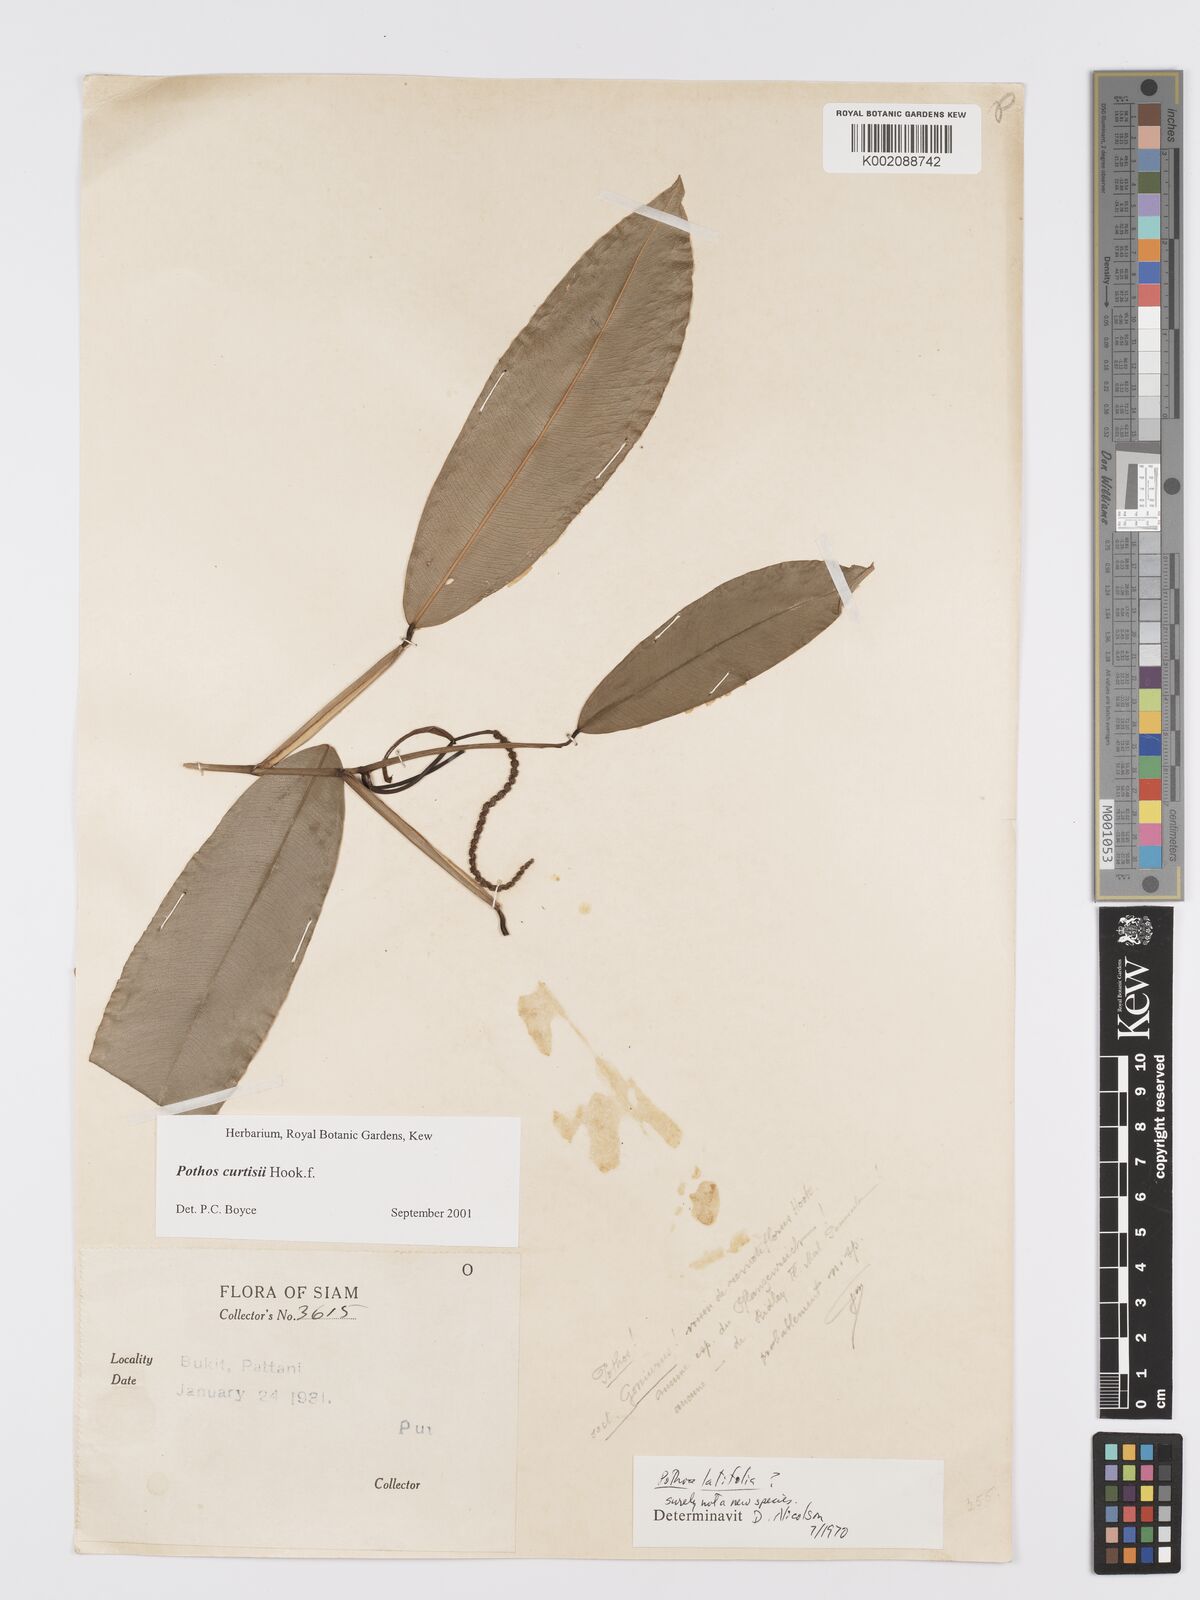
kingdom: Plantae
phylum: Tracheophyta
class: Liliopsida
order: Alismatales
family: Araceae
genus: Pothos
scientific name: Pothos curtisii
